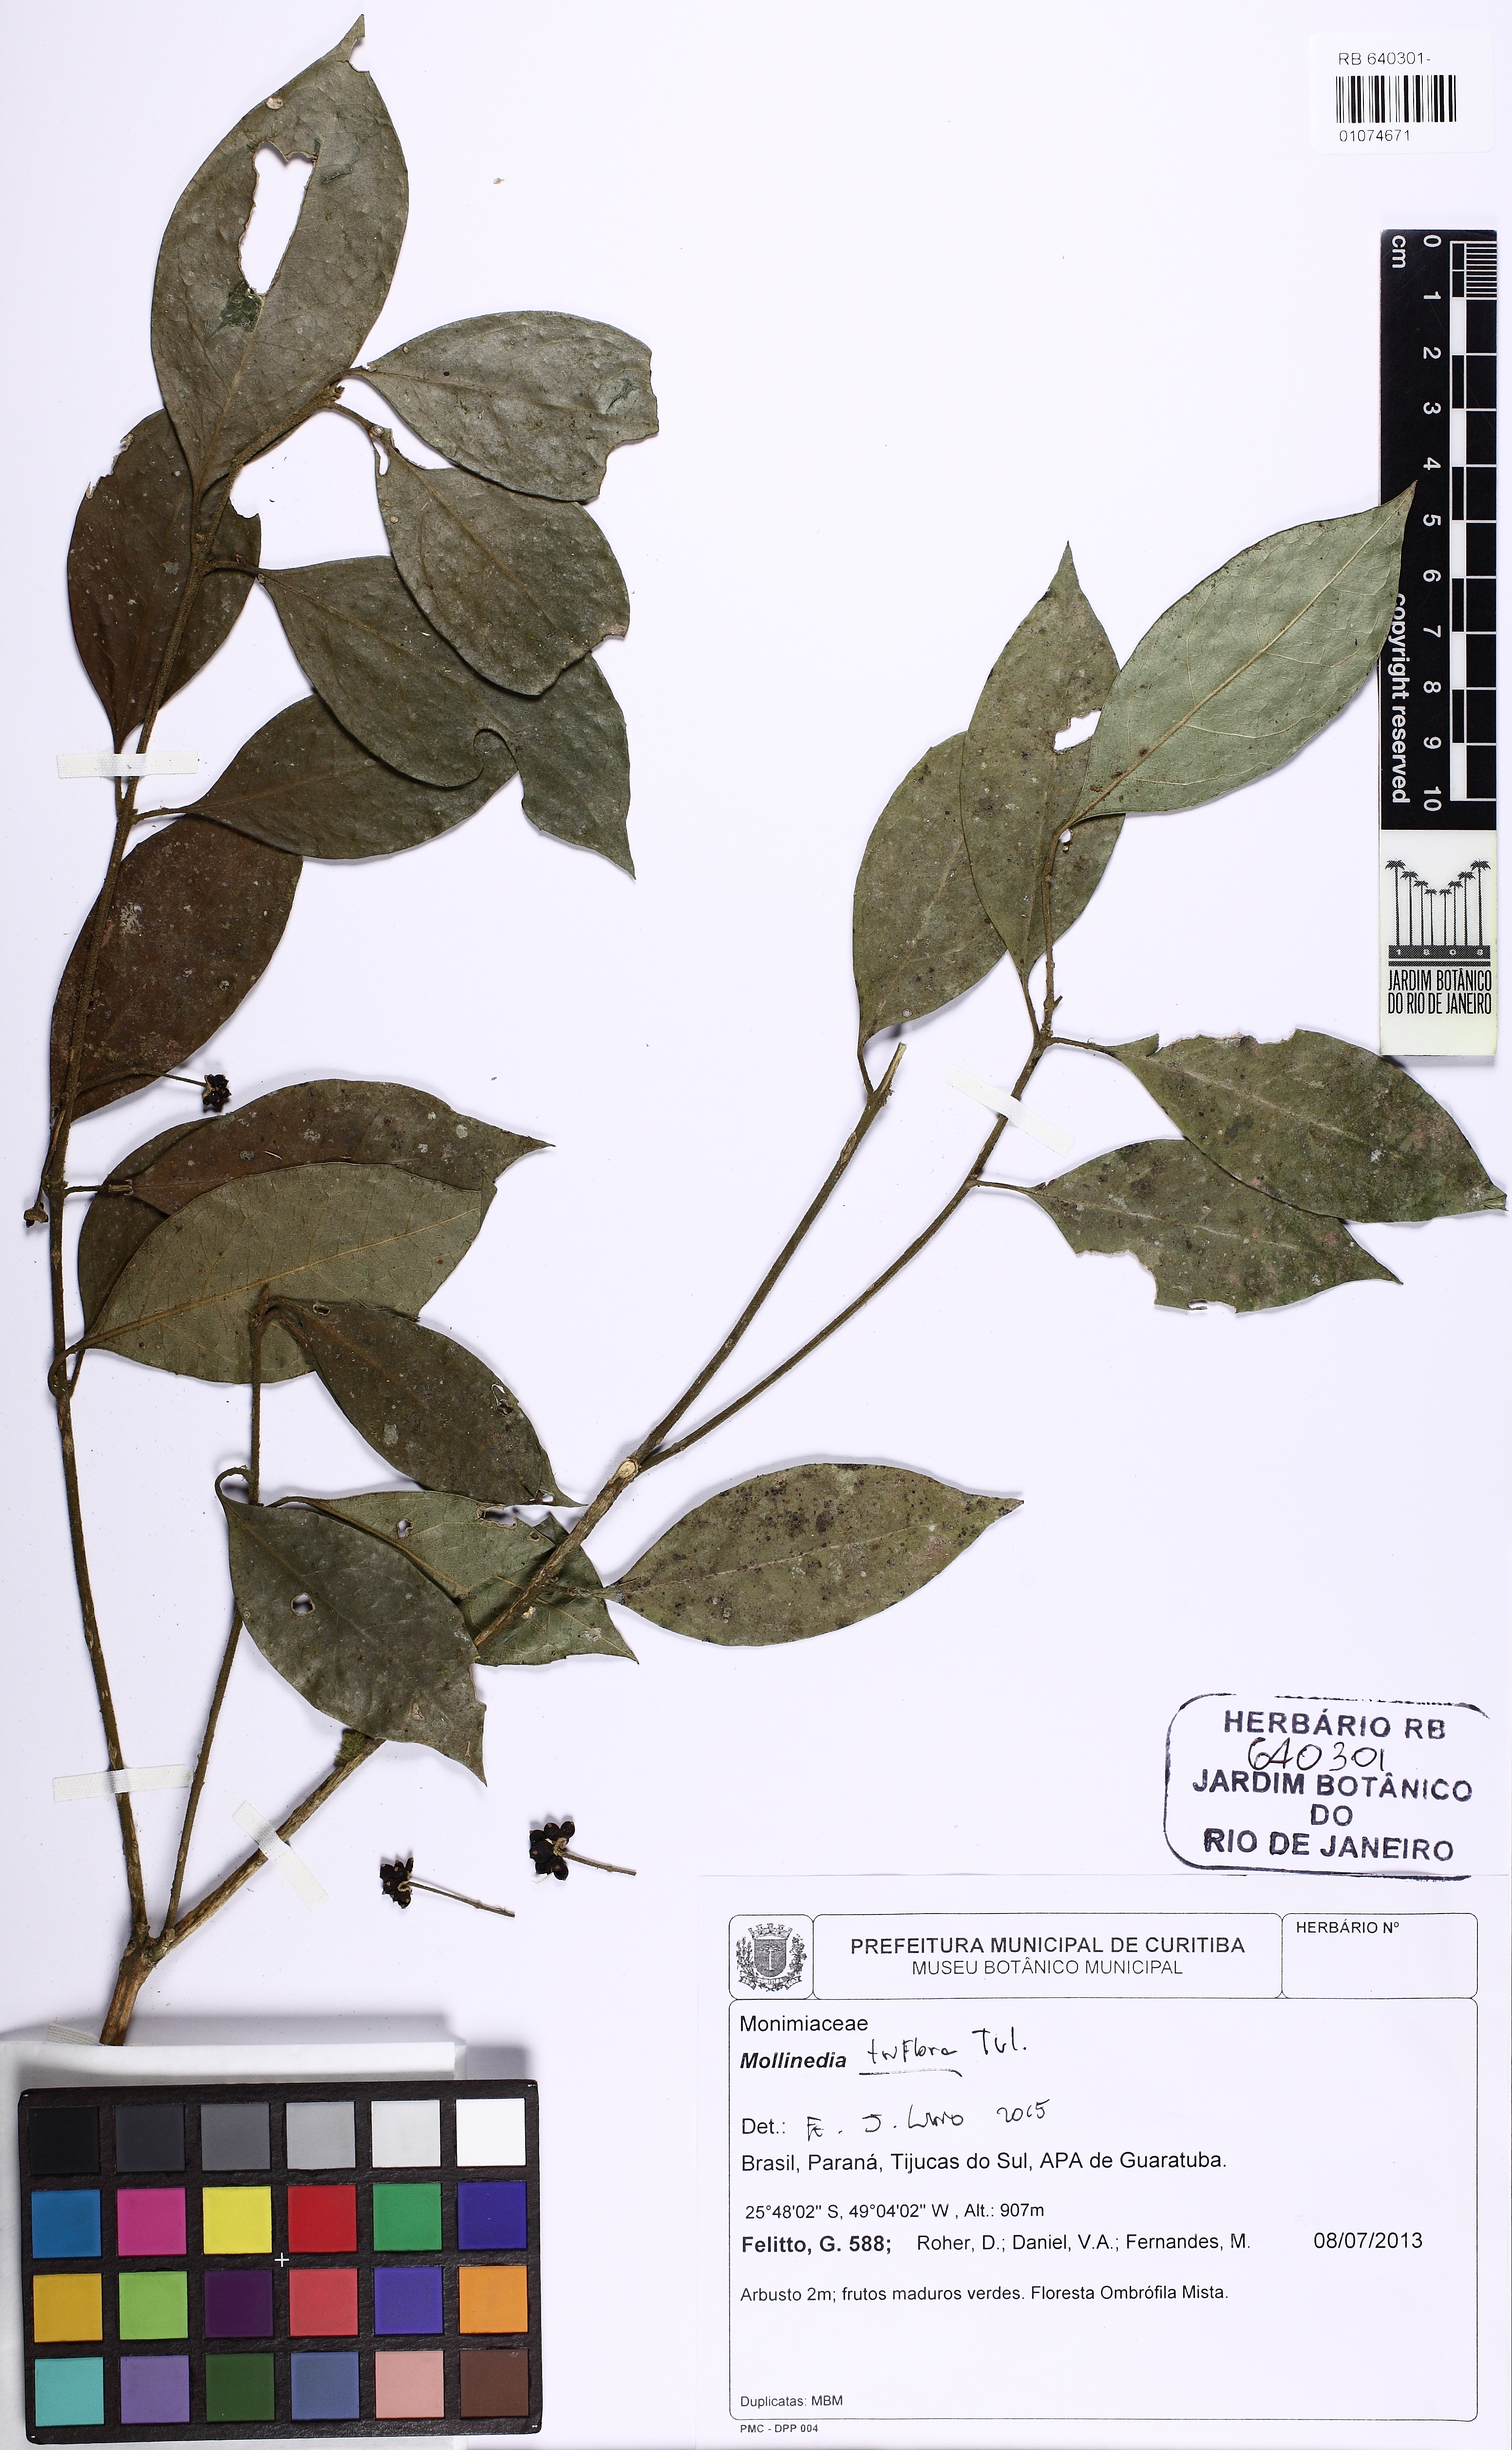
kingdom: Plantae
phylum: Tracheophyta
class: Magnoliopsida
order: Laurales
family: Monimiaceae
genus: Mollinedia
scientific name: Mollinedia triflora
